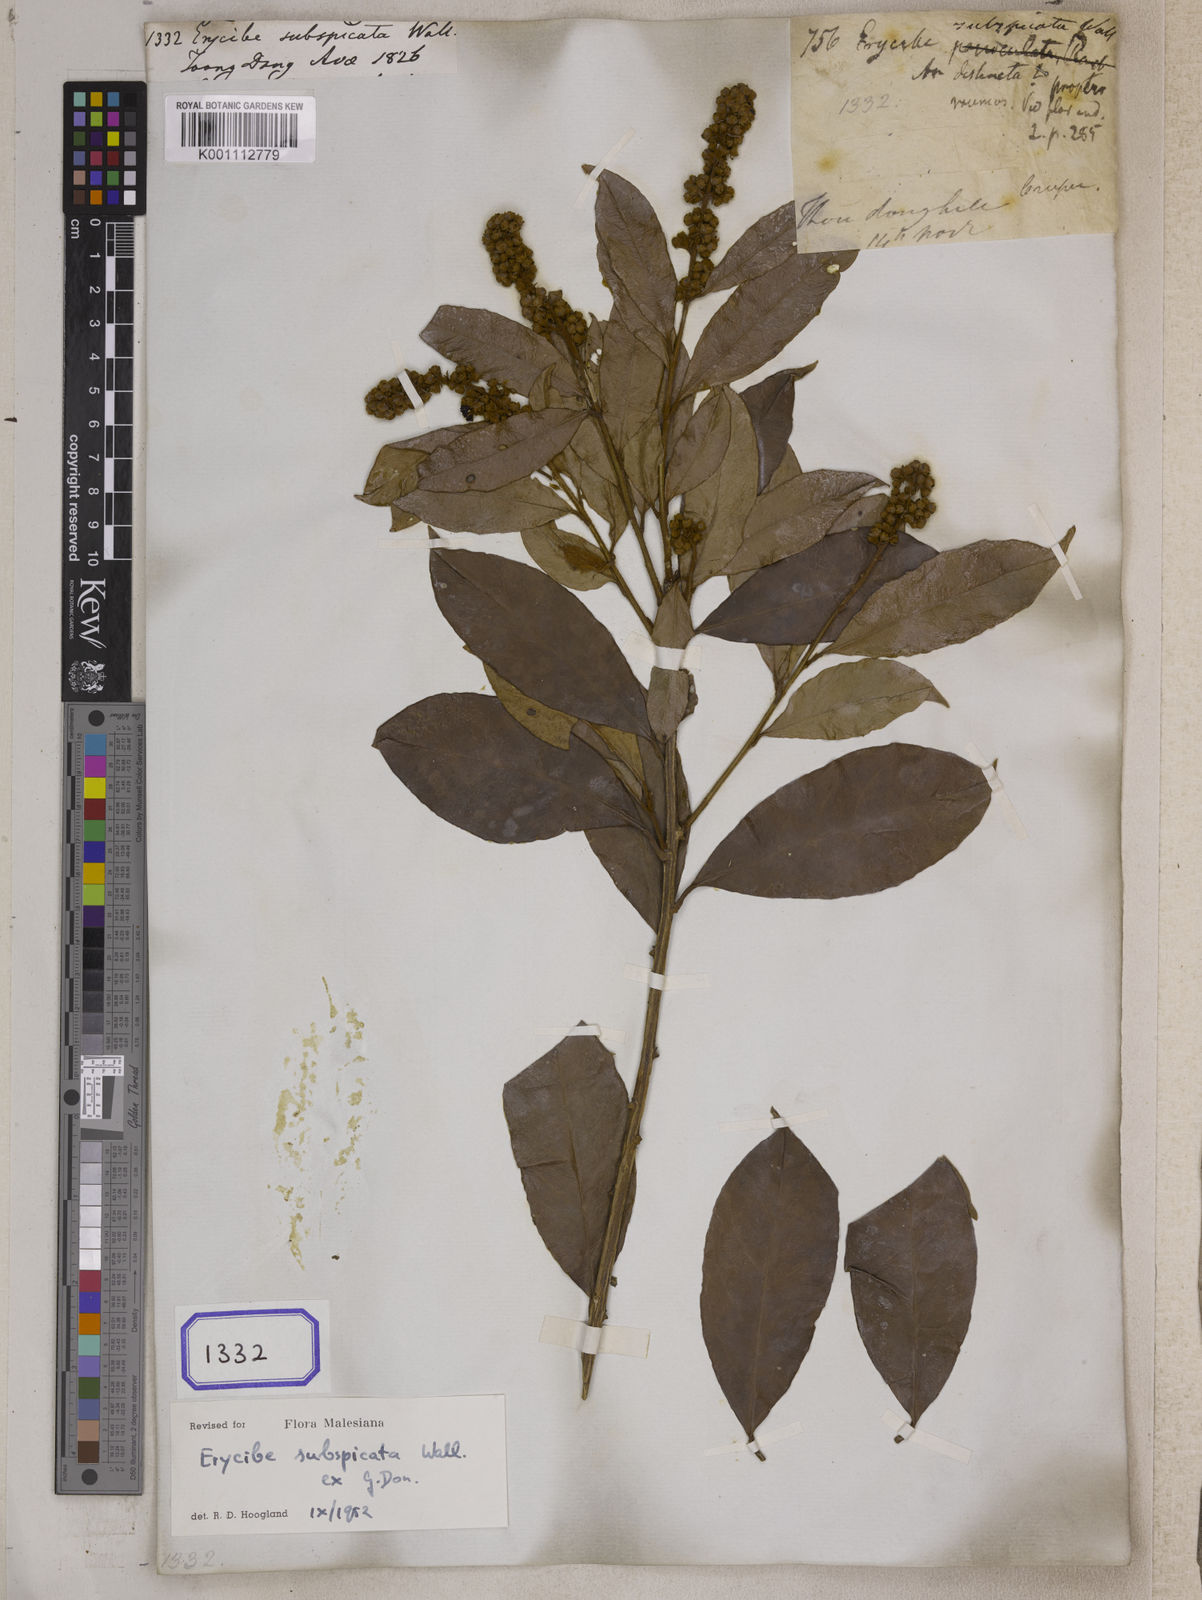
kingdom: Plantae
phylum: Tracheophyta
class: Magnoliopsida
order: Solanales
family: Convolvulaceae
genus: Erycibe
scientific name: Erycibe
